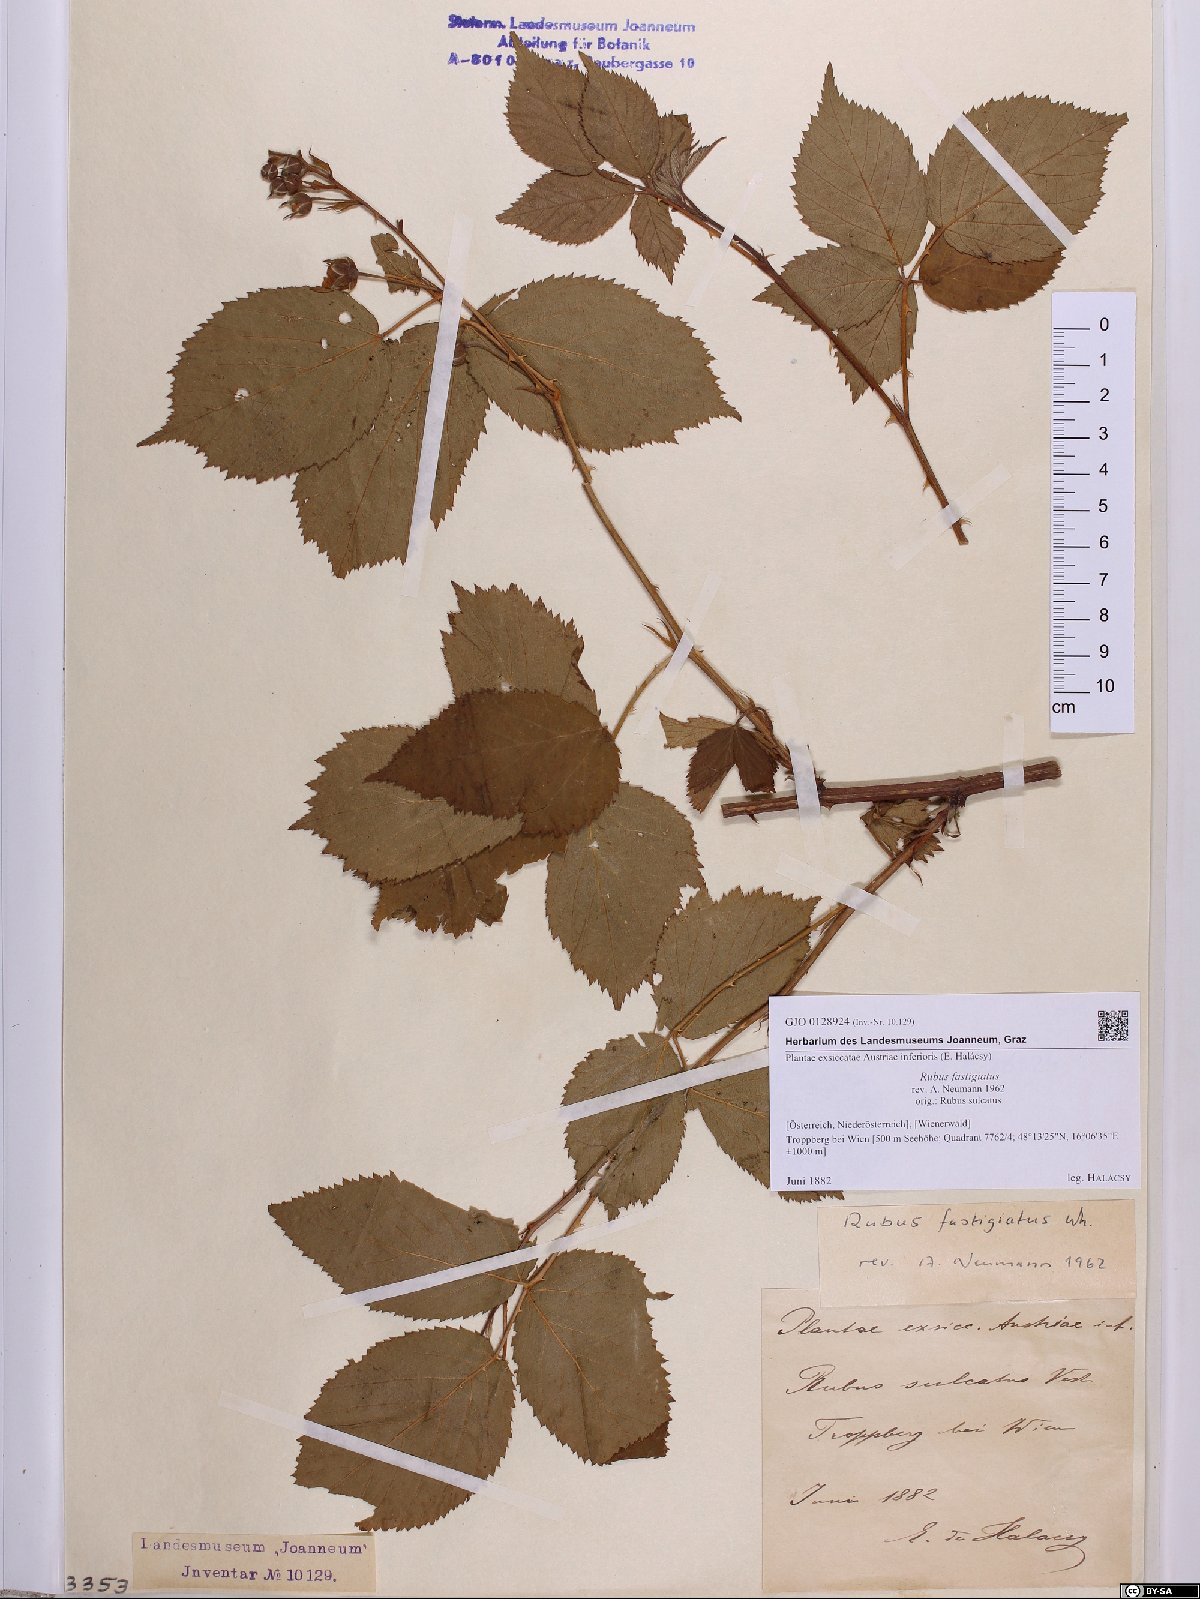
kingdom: Plantae
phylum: Tracheophyta
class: Magnoliopsida
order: Rosales
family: Rosaceae
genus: Rubus
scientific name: Rubus polonicus
